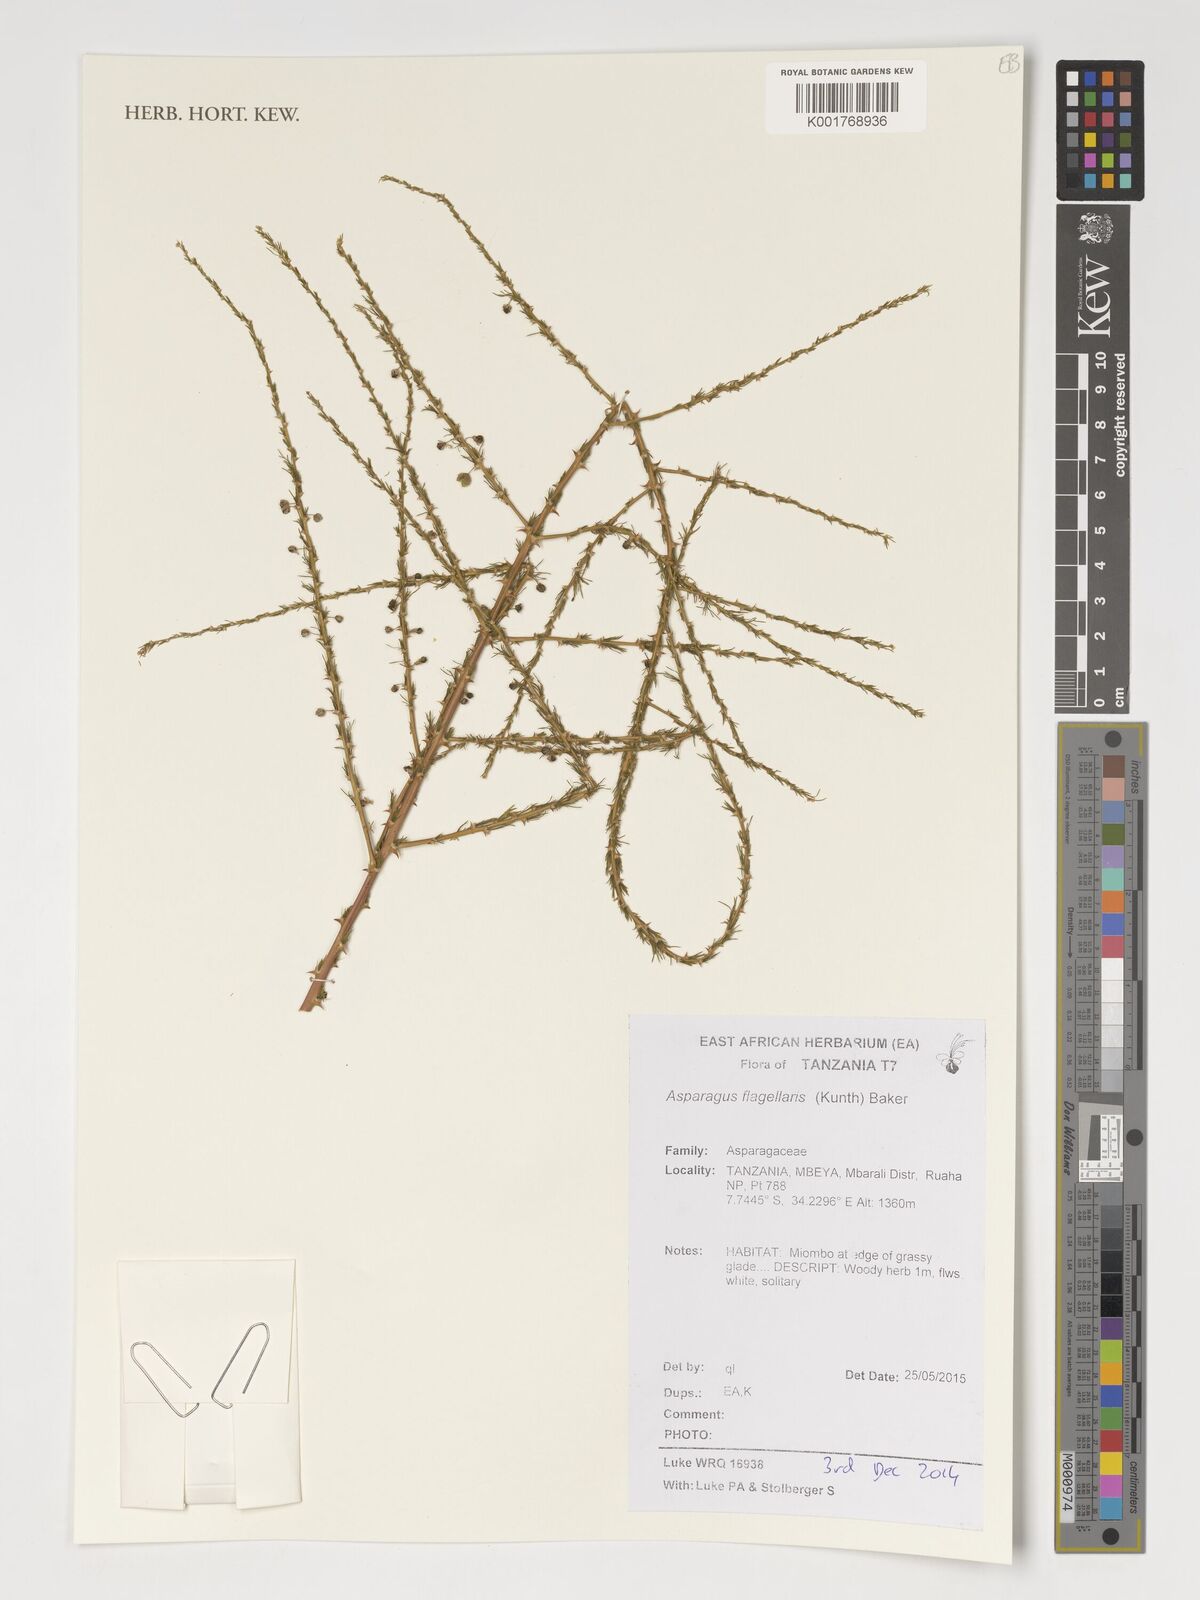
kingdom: Plantae
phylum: Tracheophyta
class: Liliopsida
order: Asparagales
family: Asparagaceae
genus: Asparagus
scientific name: Asparagus flagellaris
